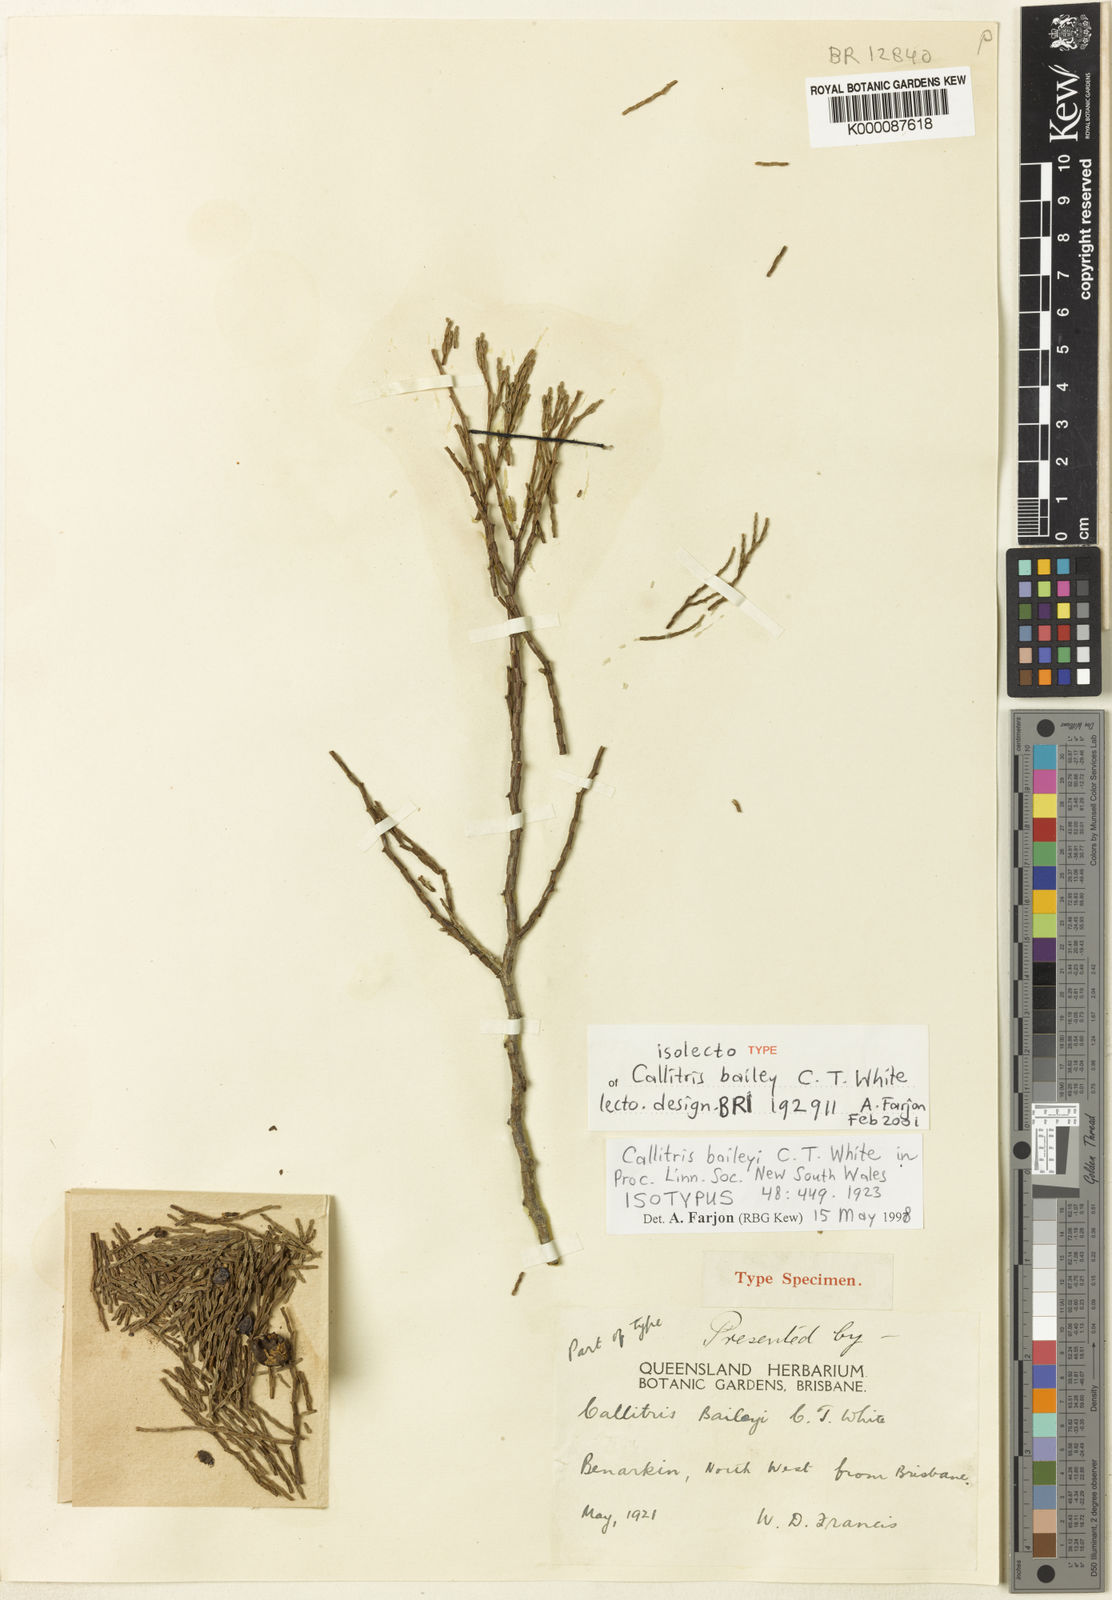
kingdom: Plantae
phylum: Tracheophyta
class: Pinopsida
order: Pinales
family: Cupressaceae
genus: Callitris
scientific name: Callitris baileyi
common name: Bailey's cypress pine
